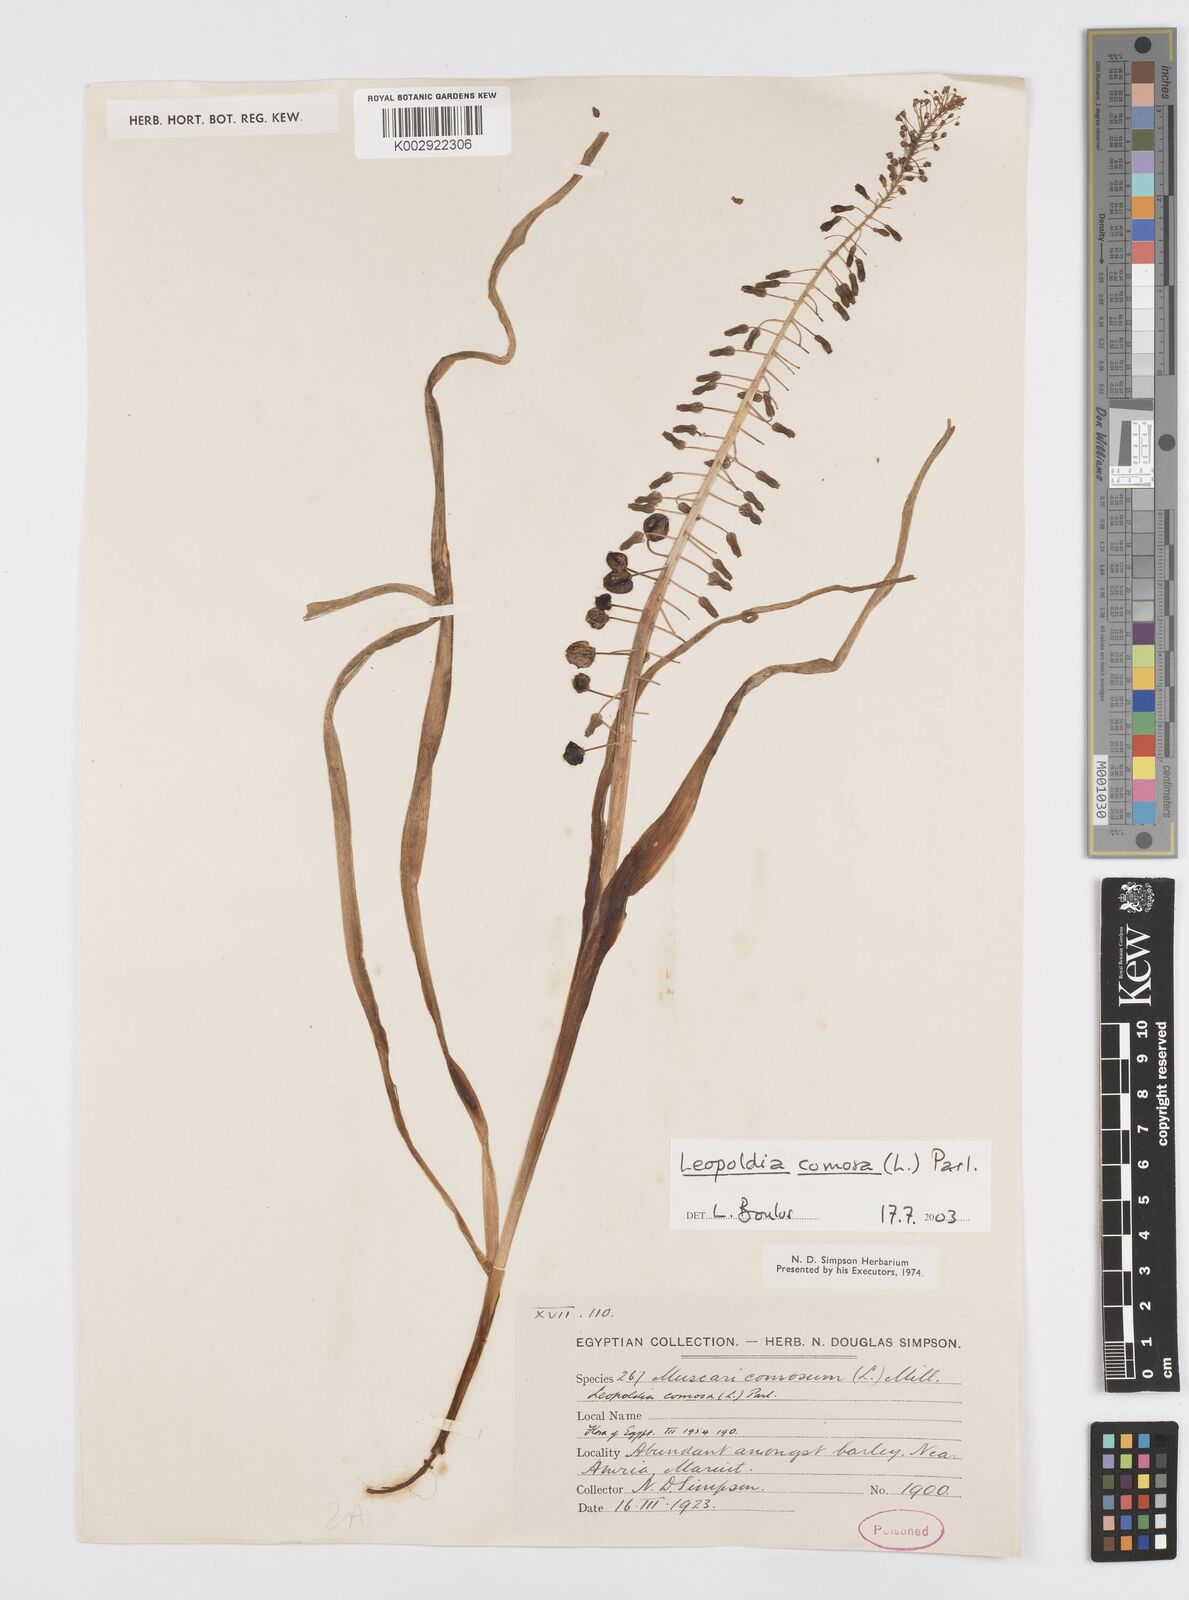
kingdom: Plantae
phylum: Tracheophyta
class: Liliopsida
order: Asparagales
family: Asparagaceae
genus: Muscari
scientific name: Muscari comosum
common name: Tassel hyacinth
